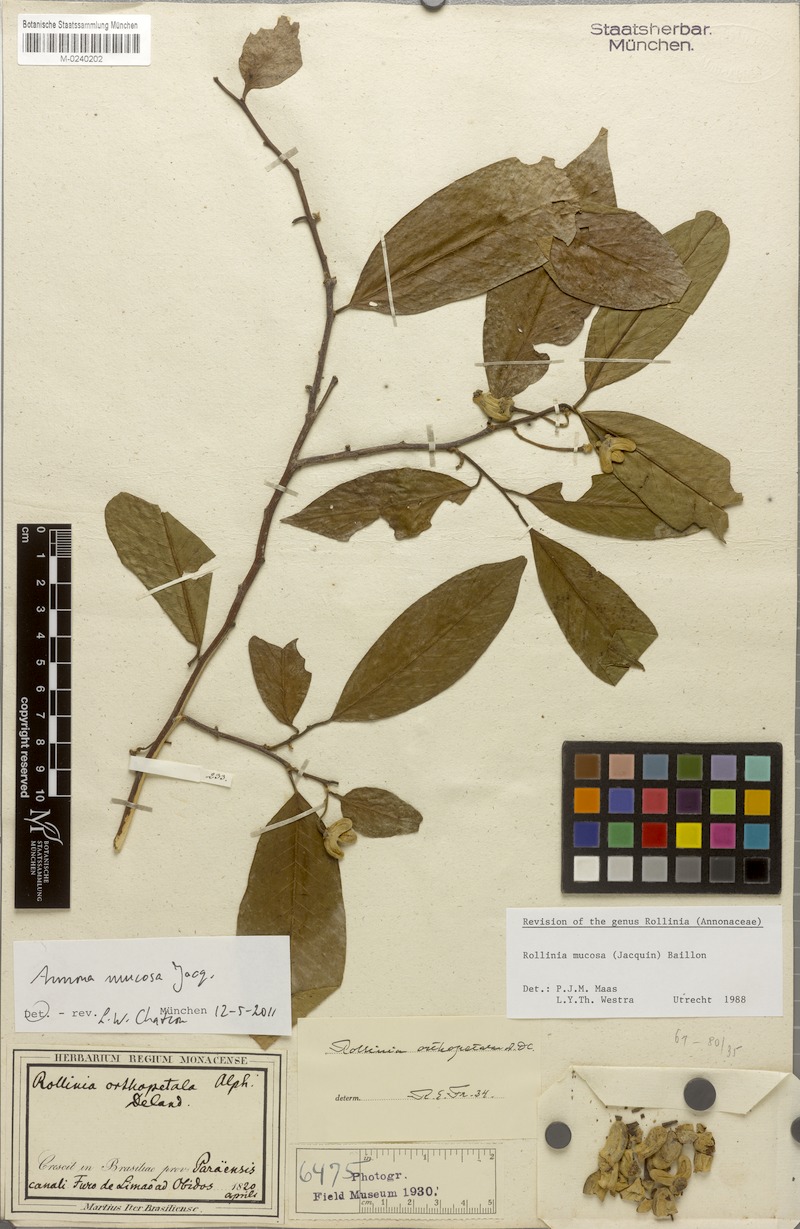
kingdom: Plantae
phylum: Tracheophyta
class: Magnoliopsida
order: Magnoliales
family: Annonaceae
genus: Annona
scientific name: Annona mucosa
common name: Sugar apple
